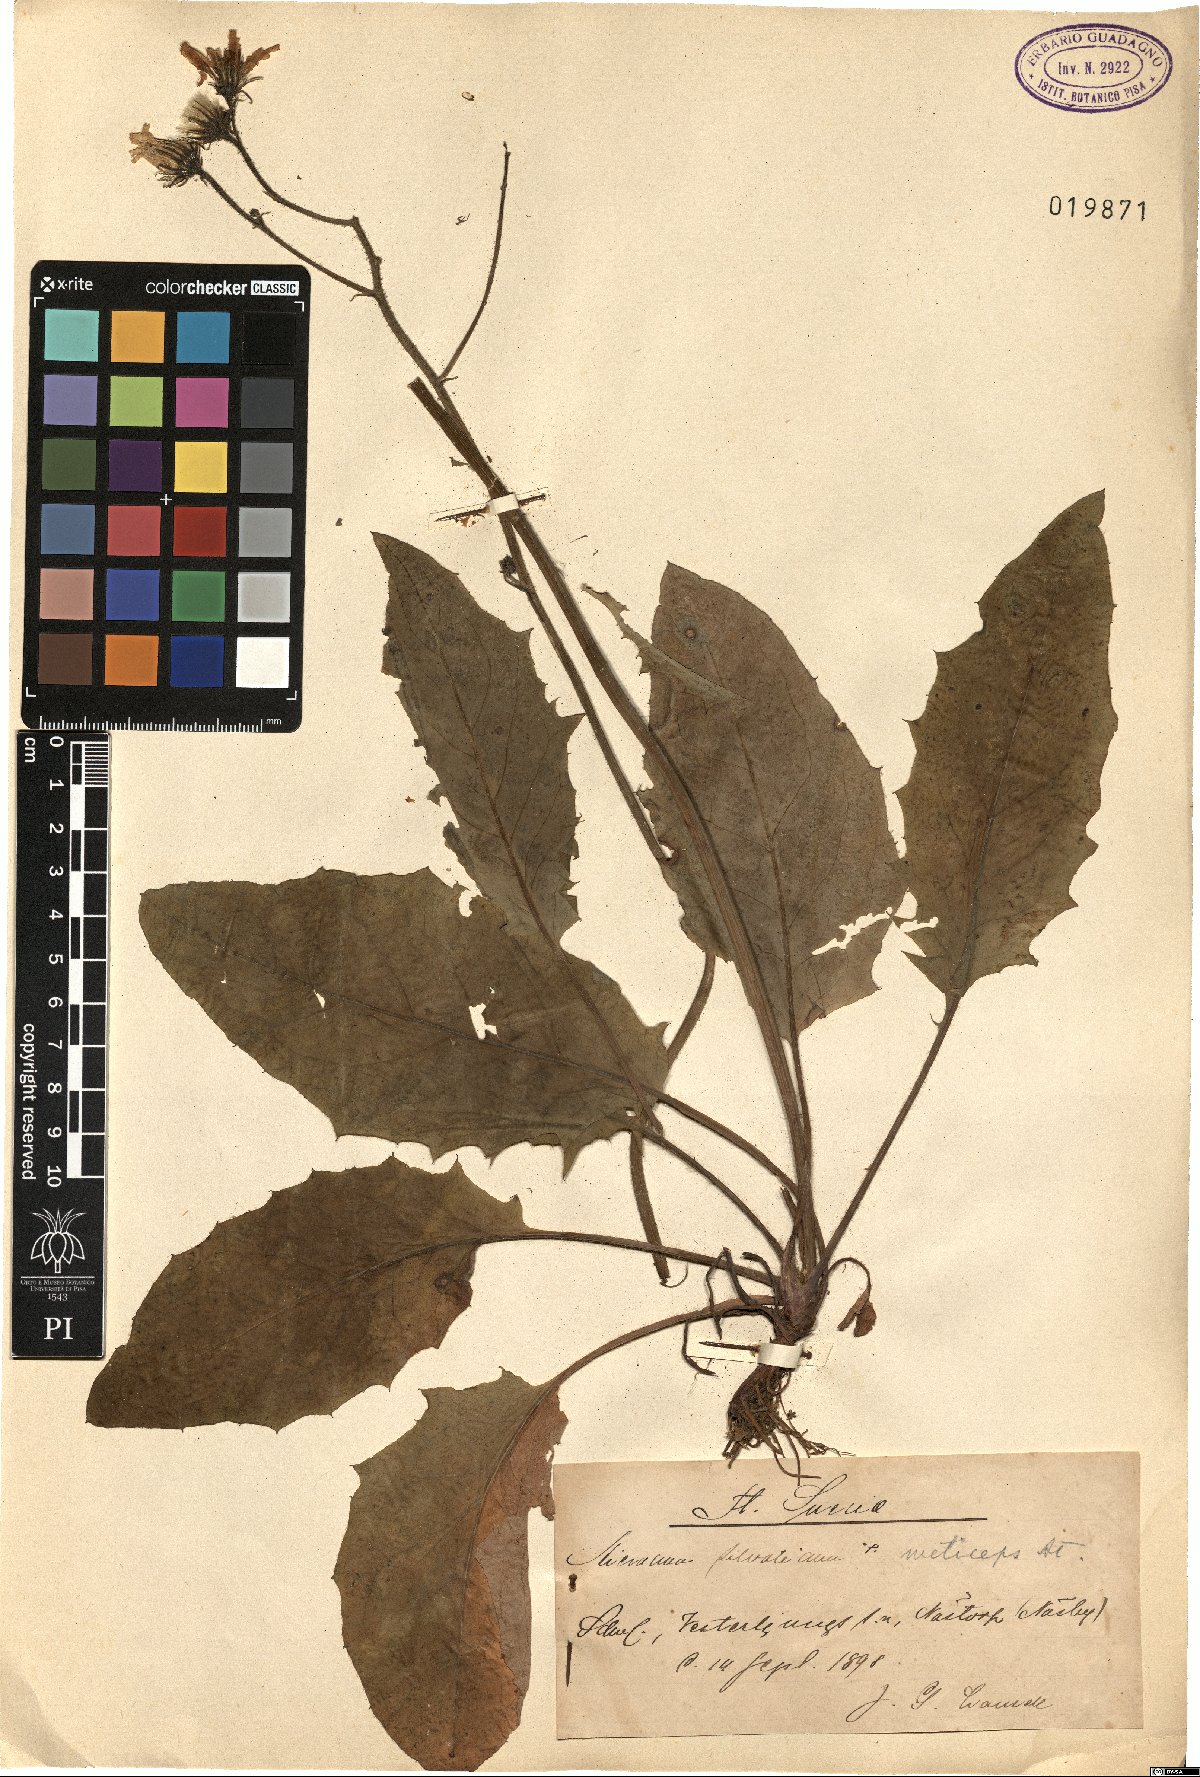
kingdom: Plantae
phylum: Tracheophyta
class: Magnoliopsida
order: Asterales
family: Asteraceae
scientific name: Asteraceae
